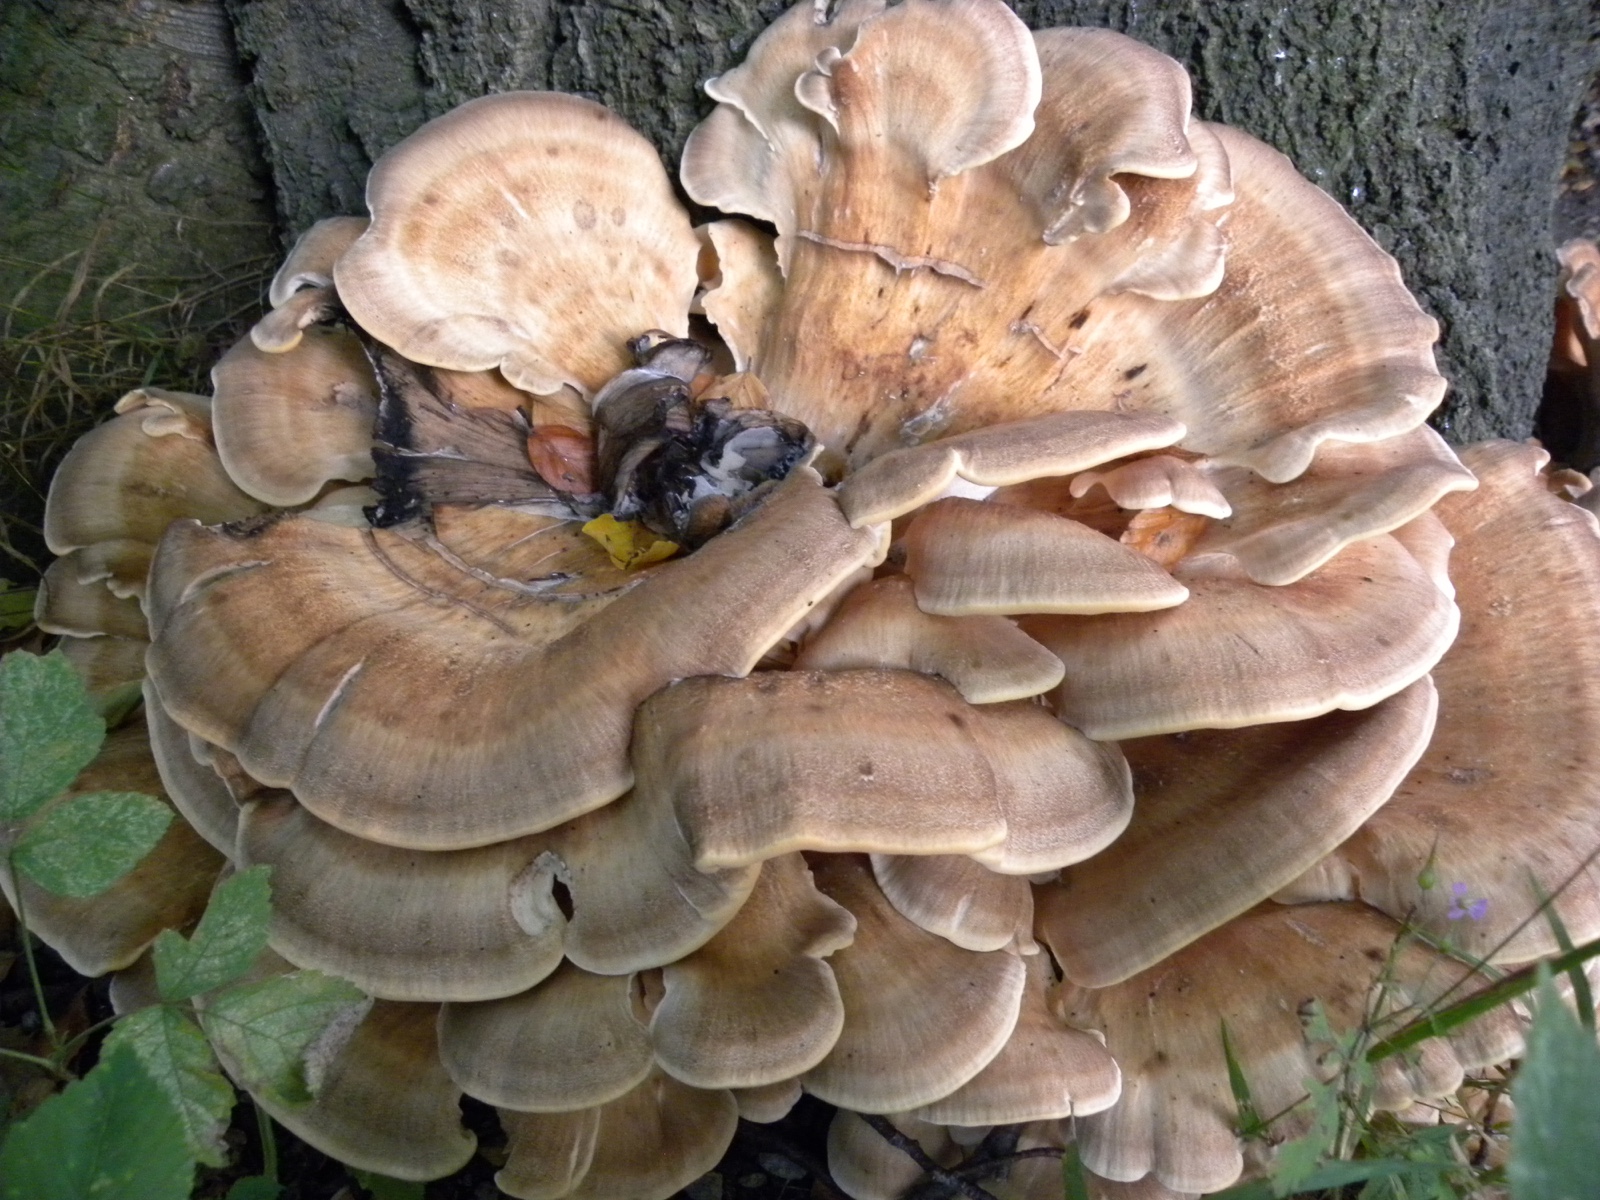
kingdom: Fungi
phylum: Basidiomycota
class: Agaricomycetes
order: Polyporales
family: Meripilaceae
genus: Meripilus
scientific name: Meripilus giganteus
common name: kæmpeporesvamp
